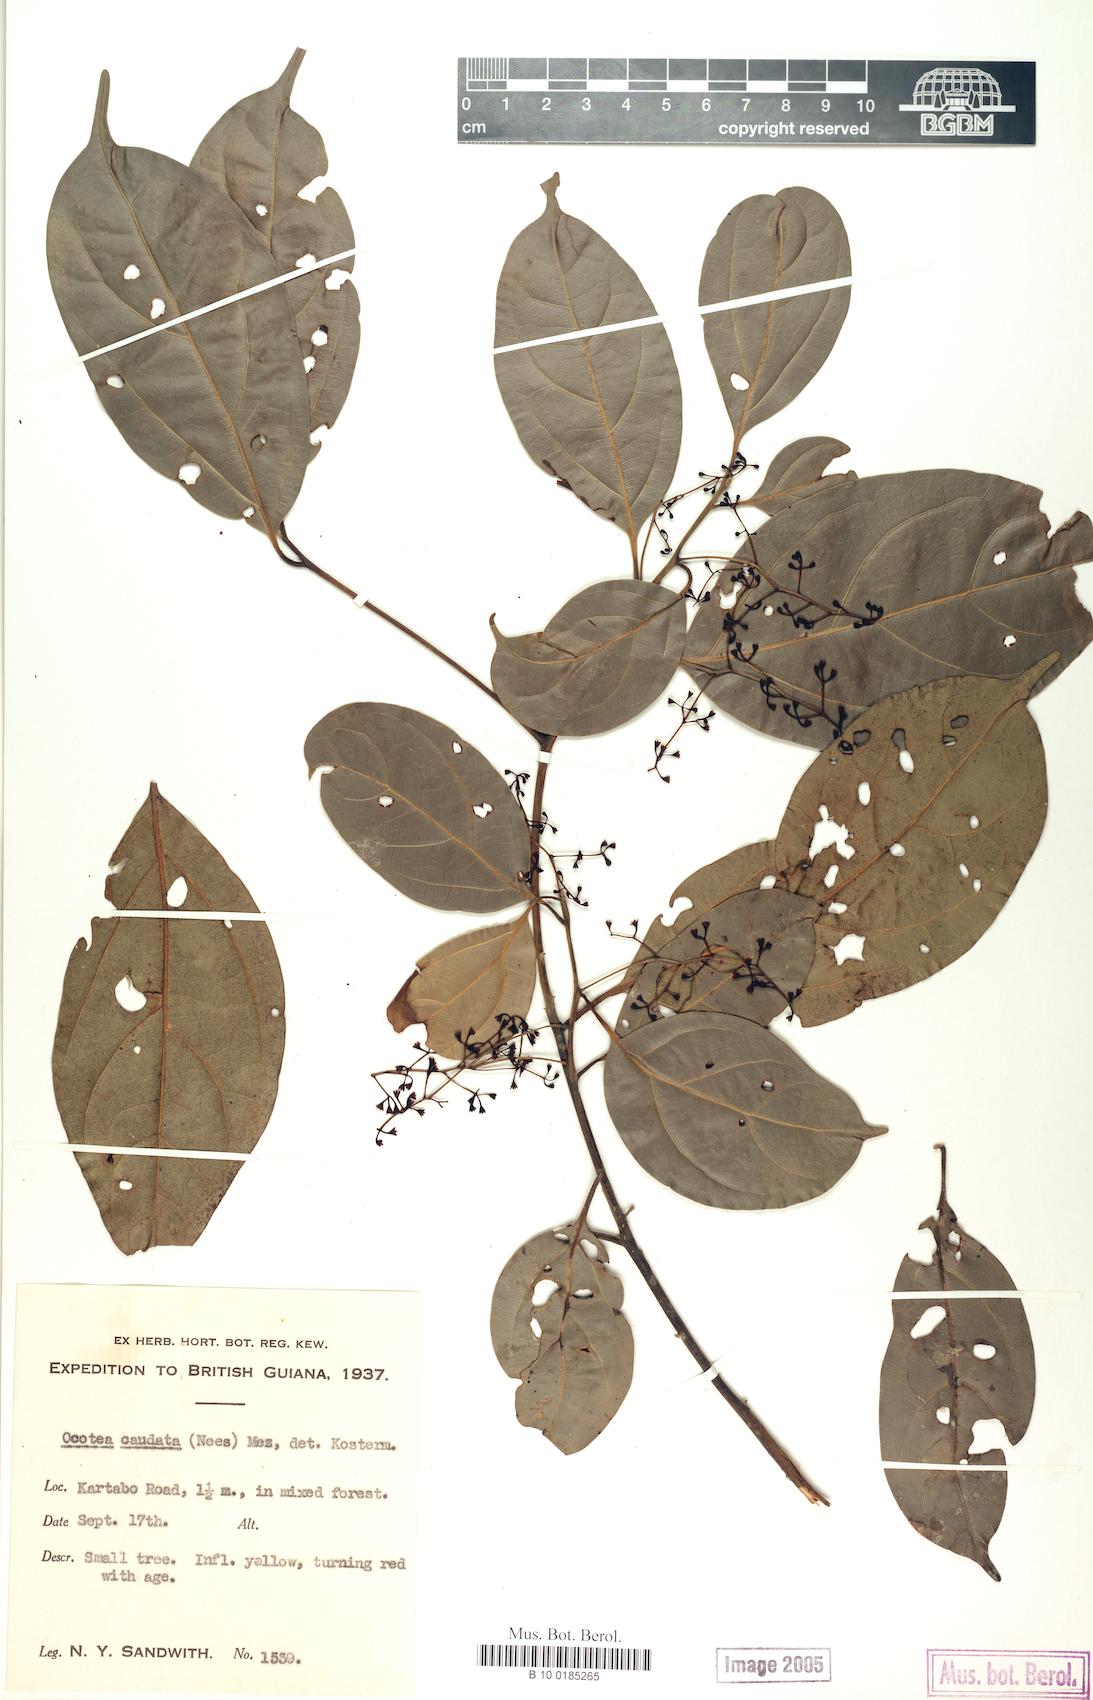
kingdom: Plantae
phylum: Tracheophyta
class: Magnoliopsida
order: Laurales
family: Lauraceae
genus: Ocotea
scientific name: Ocotea leptobotra
